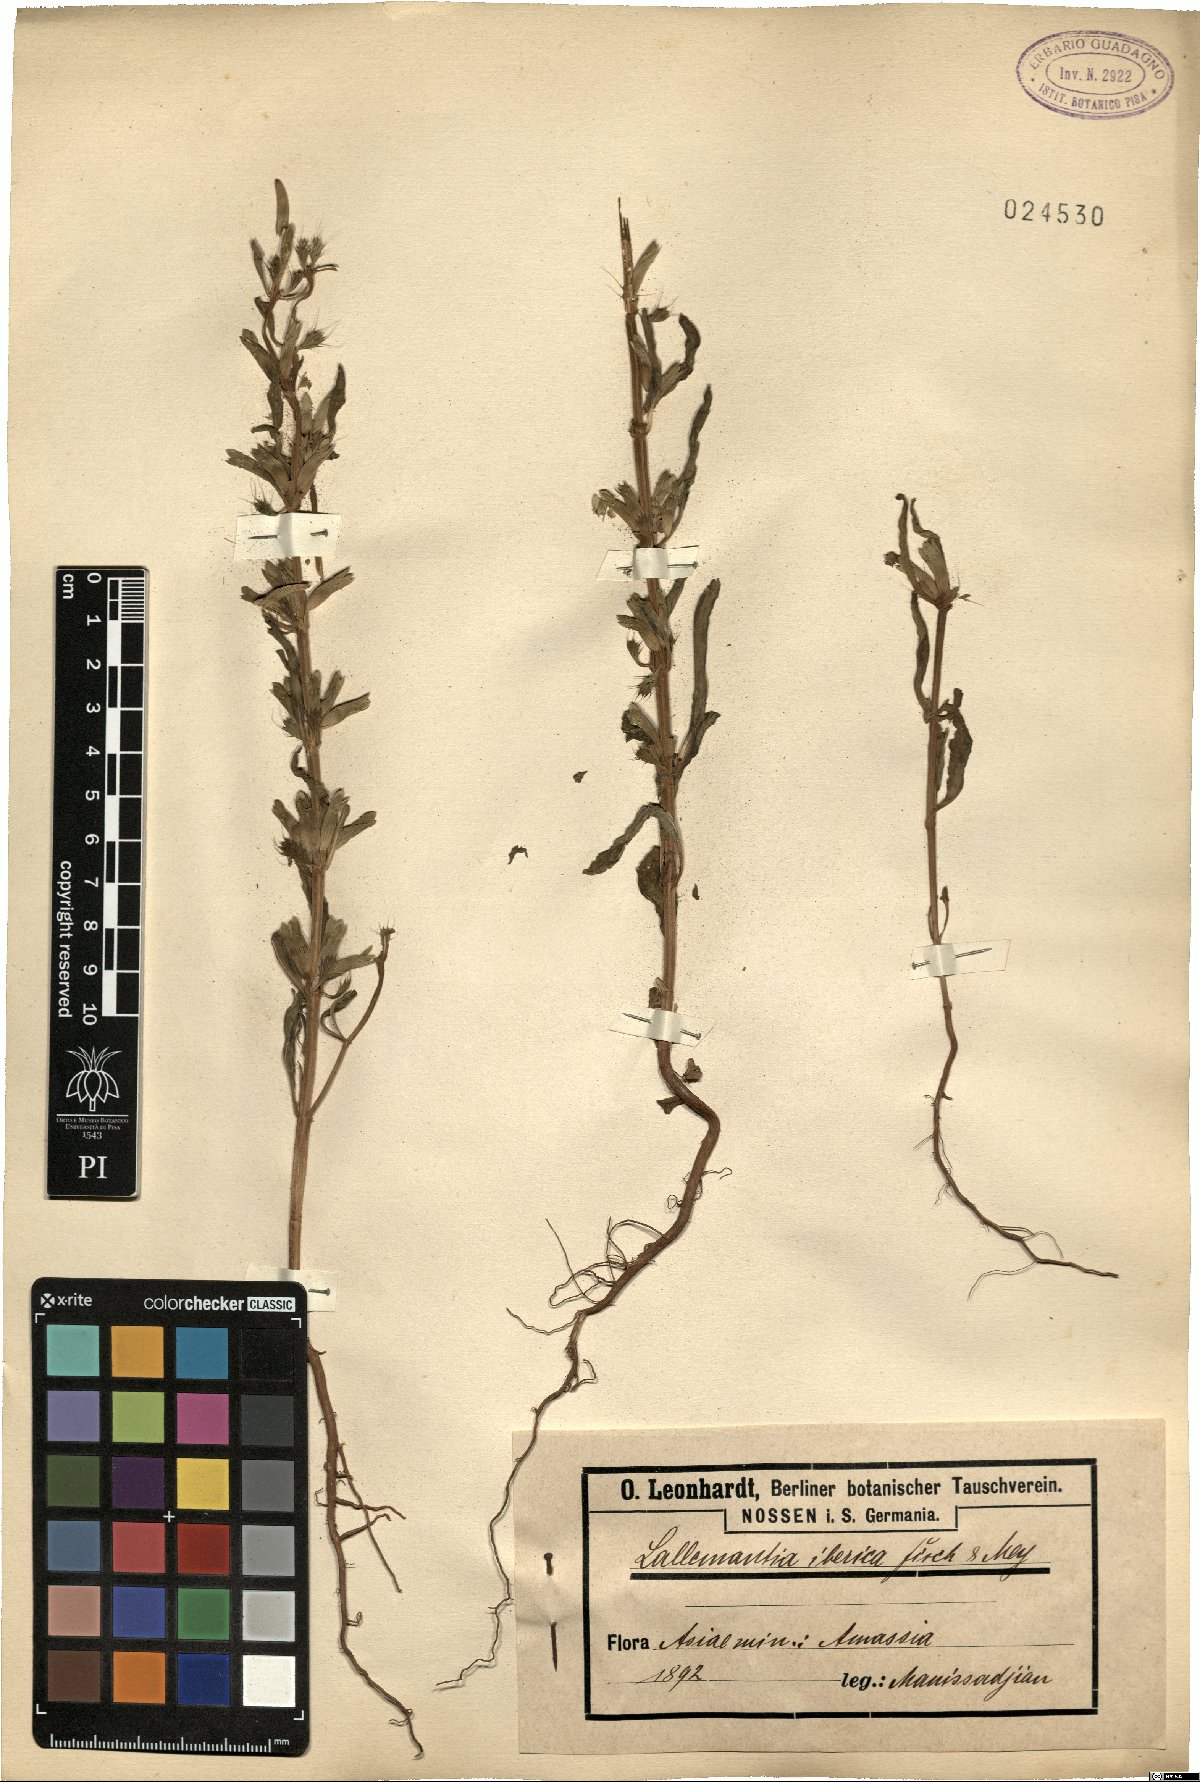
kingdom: Plantae
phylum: Tracheophyta
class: Magnoliopsida
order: Lamiales
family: Lamiaceae
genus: Lallemantia
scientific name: Lallemantia iberica
